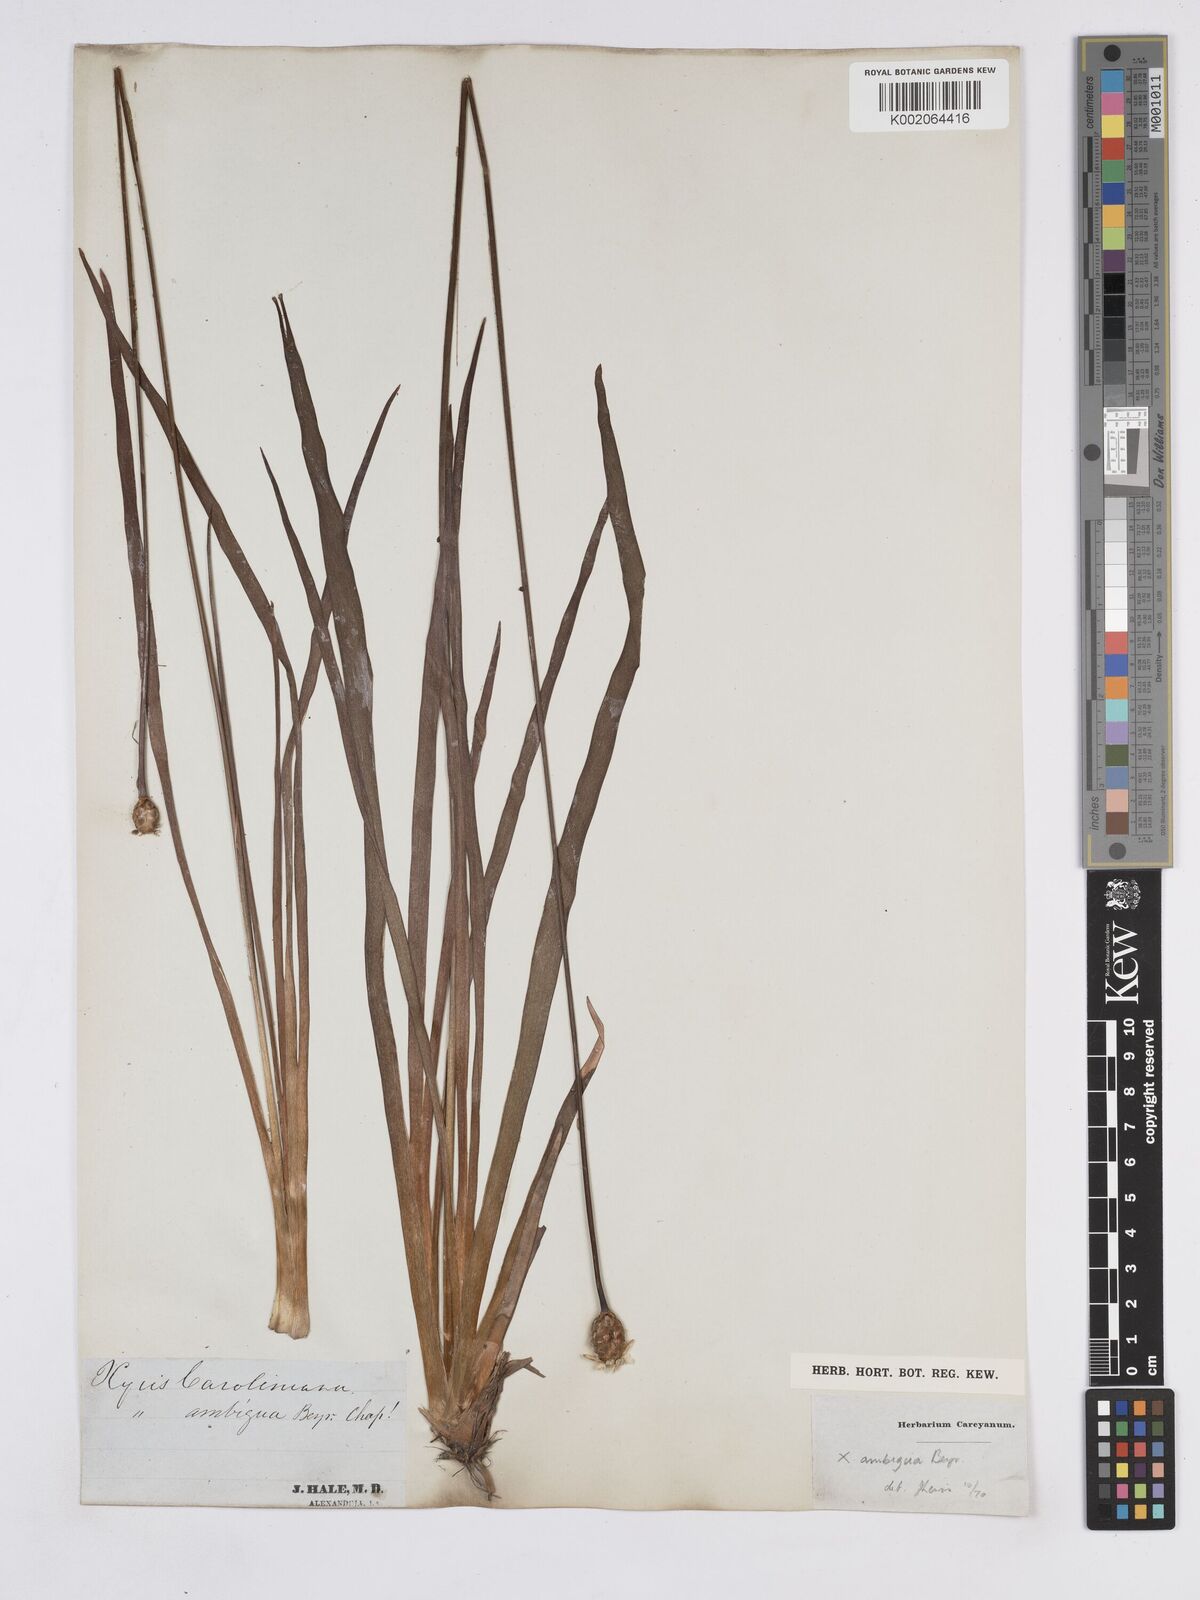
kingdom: Plantae
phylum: Tracheophyta
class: Liliopsida
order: Poales
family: Xyridaceae
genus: Xyris
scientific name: Xyris caroliniana
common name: Carolina yellow-eyed-grass
